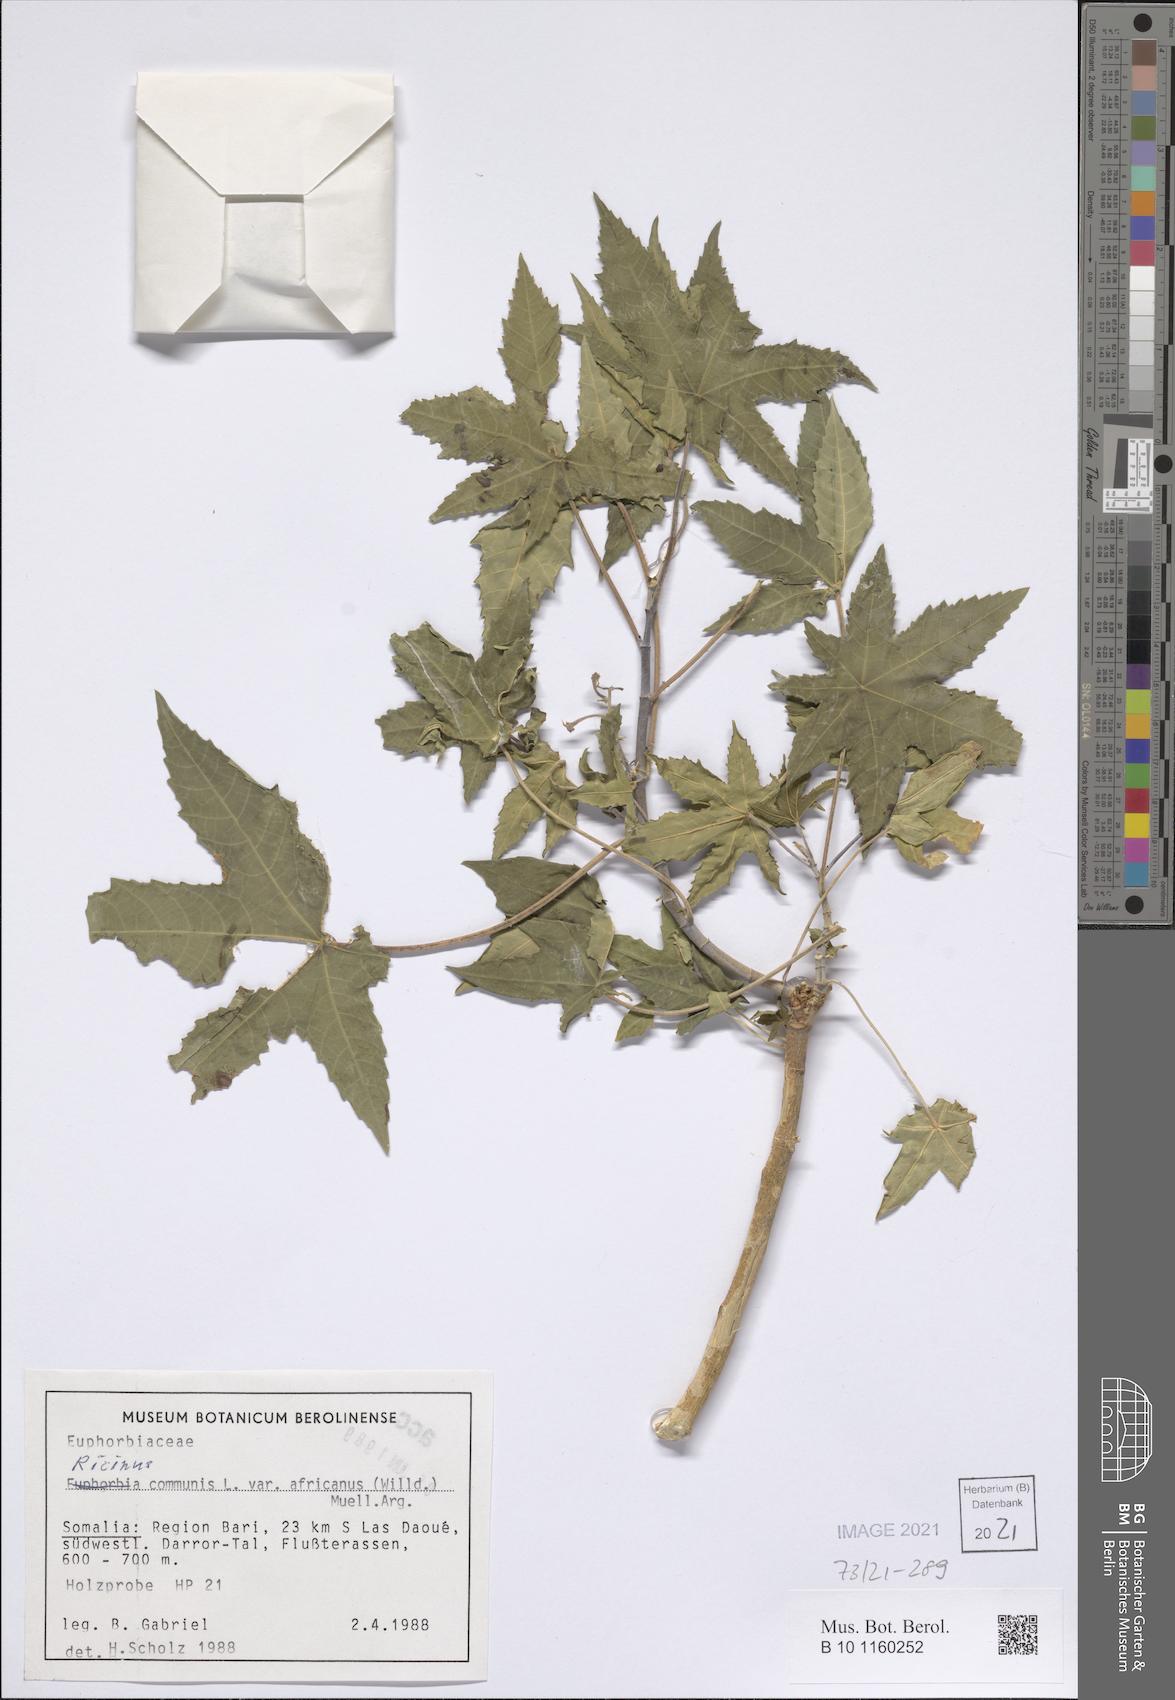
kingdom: Plantae
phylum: Tracheophyta
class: Magnoliopsida
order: Malpighiales
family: Euphorbiaceae
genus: Ricinus
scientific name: Ricinus communis
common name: Castor-oil-plant
